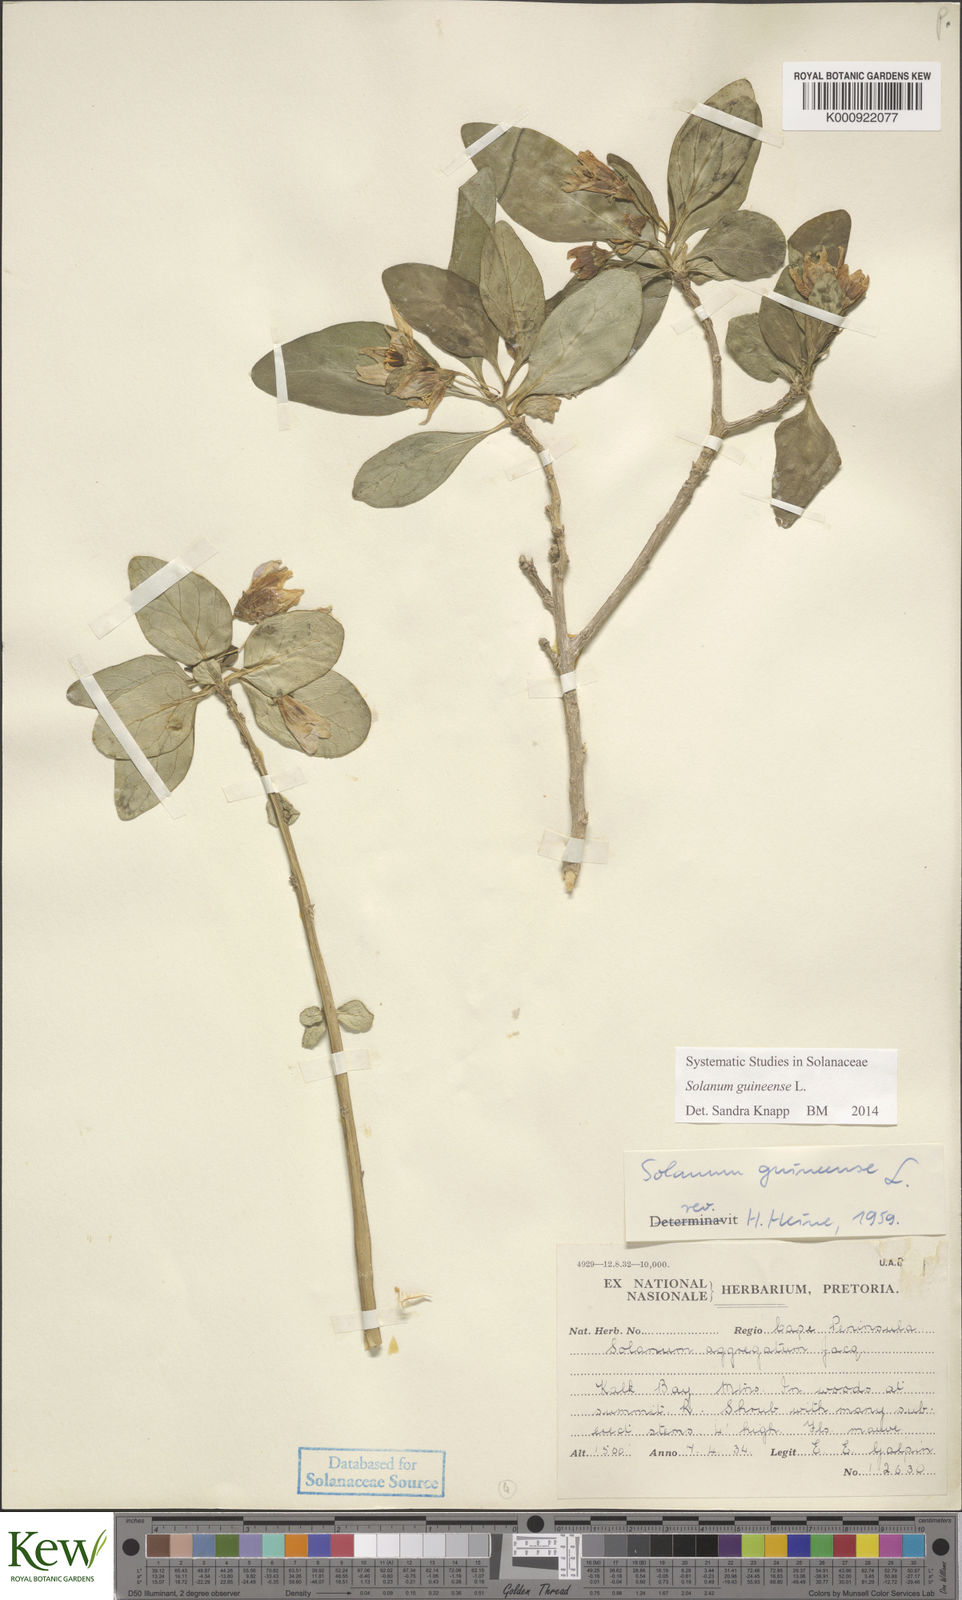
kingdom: Plantae
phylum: Tracheophyta
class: Magnoliopsida
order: Solanales
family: Solanaceae
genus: Solanum
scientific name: Solanum guineense
